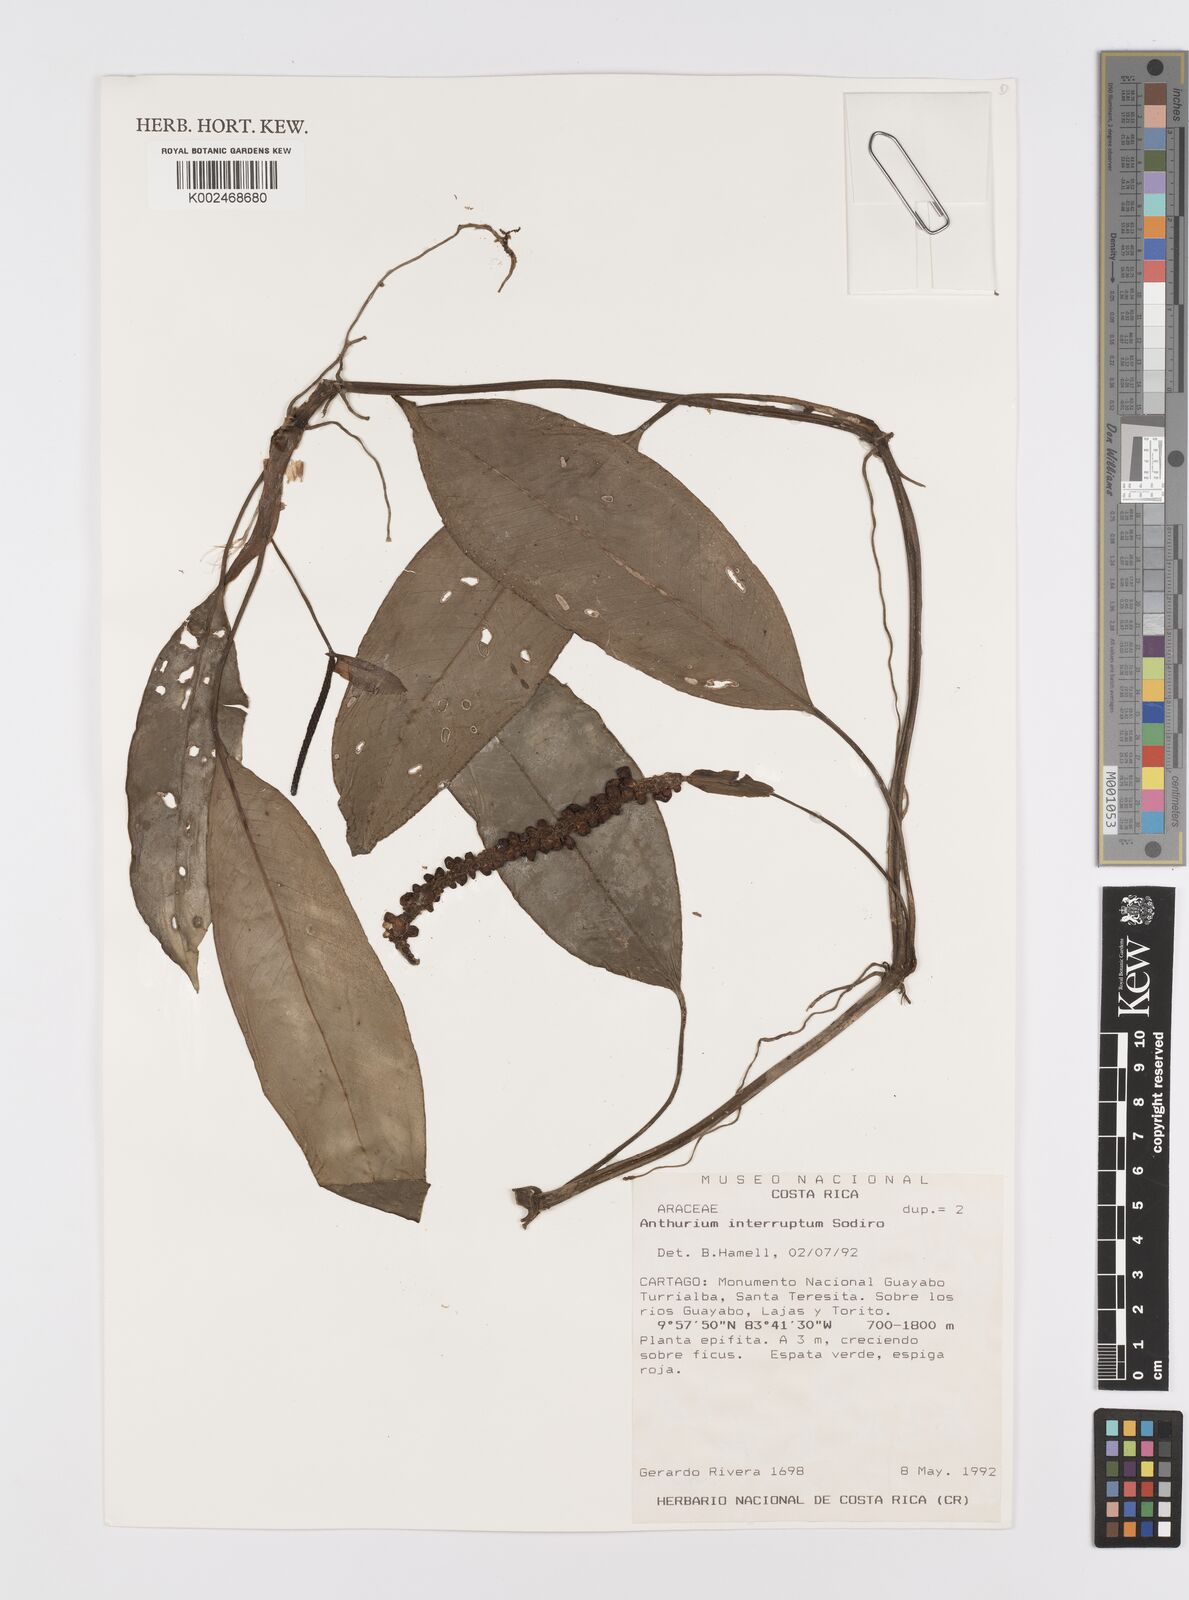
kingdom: Plantae
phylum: Tracheophyta
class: Liliopsida
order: Alismatales
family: Araceae
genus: Anthurium
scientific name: Anthurium interruptum
